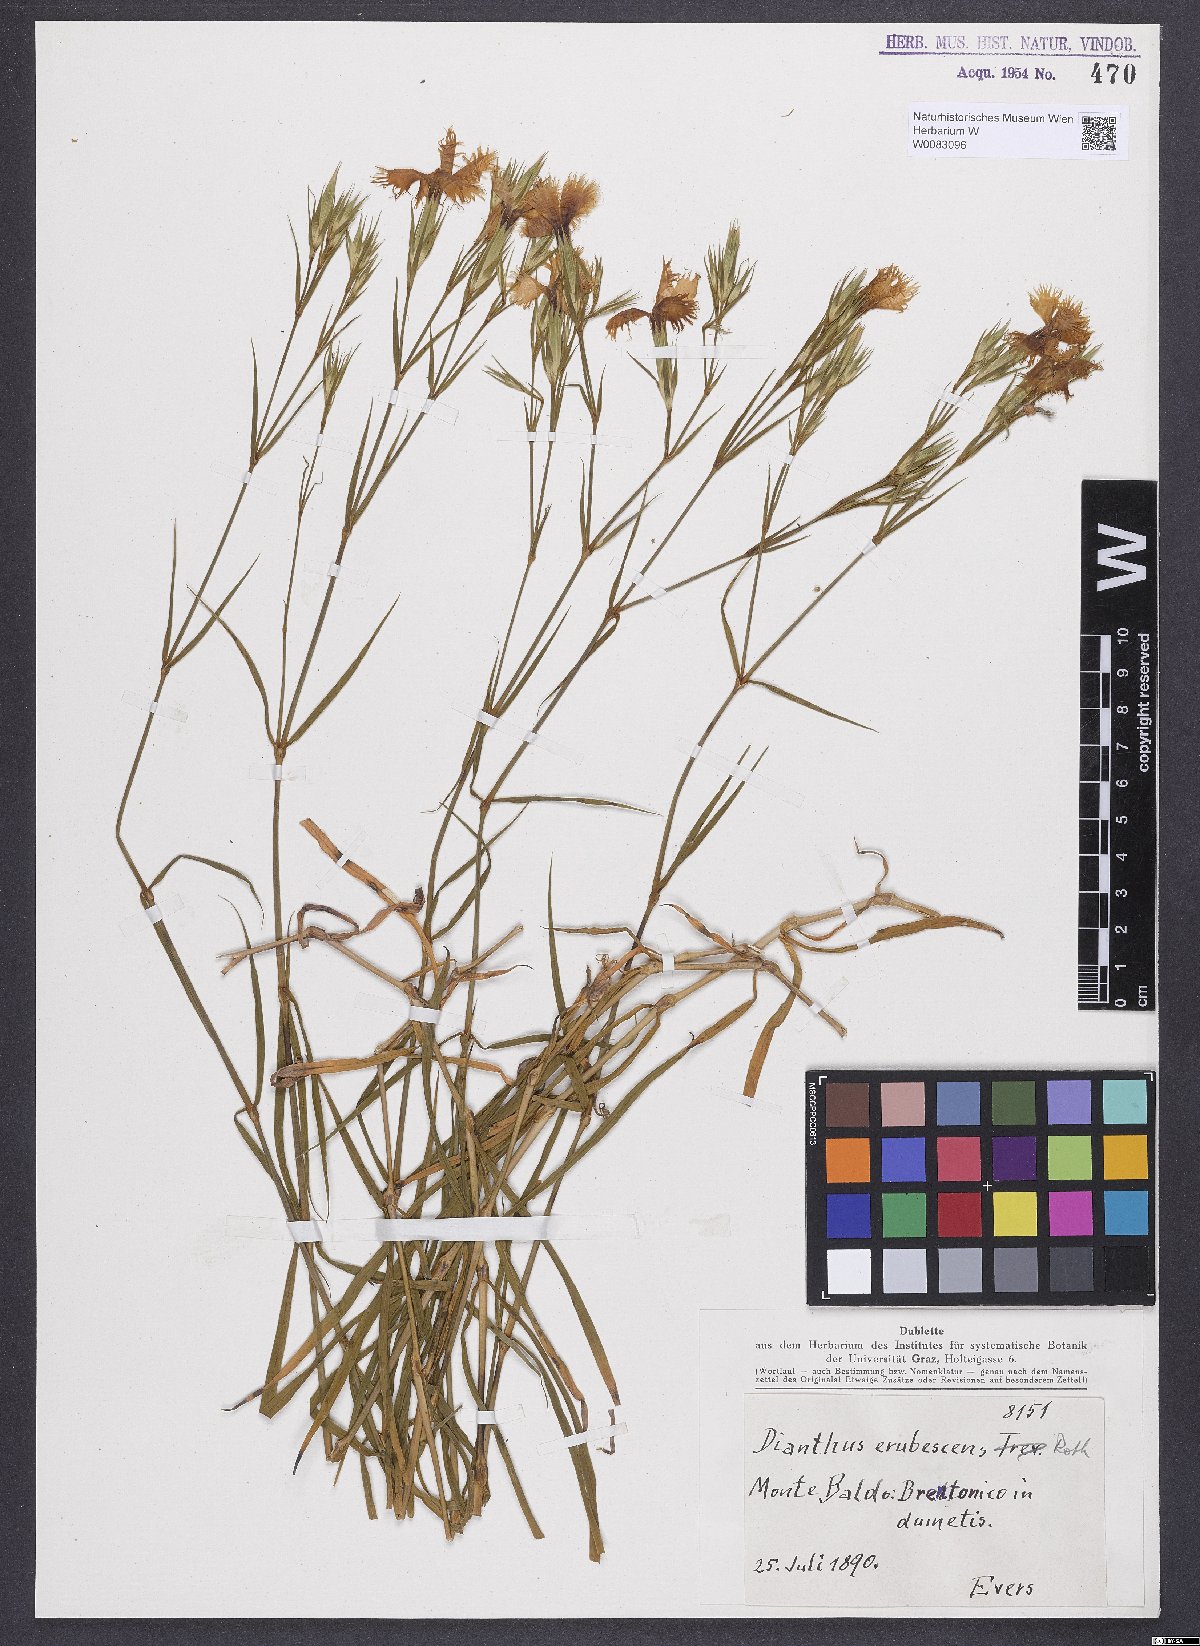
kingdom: Plantae
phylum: Tracheophyta
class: Magnoliopsida
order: Caryophyllales
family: Caryophyllaceae
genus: Dianthus
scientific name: Dianthus erubescens
